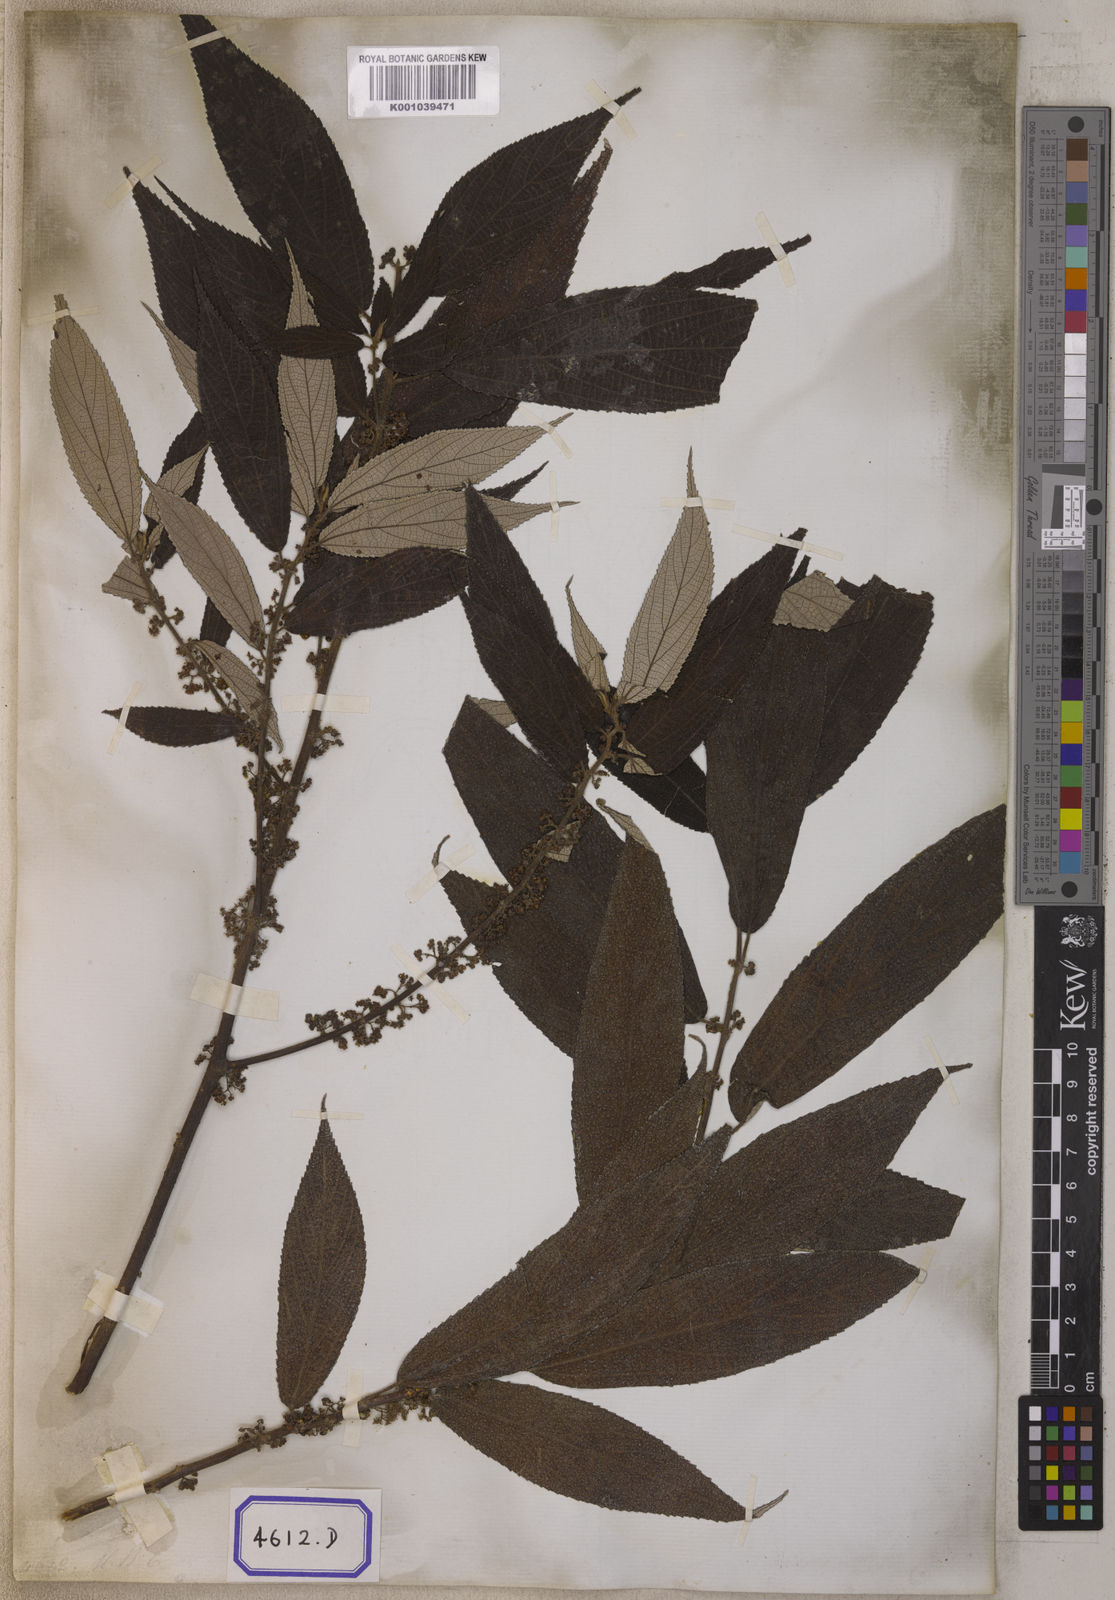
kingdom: Plantae
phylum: Tracheophyta
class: Magnoliopsida
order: Rosales
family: Urticaceae
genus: Debregeasia
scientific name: Debregeasia longifolia
